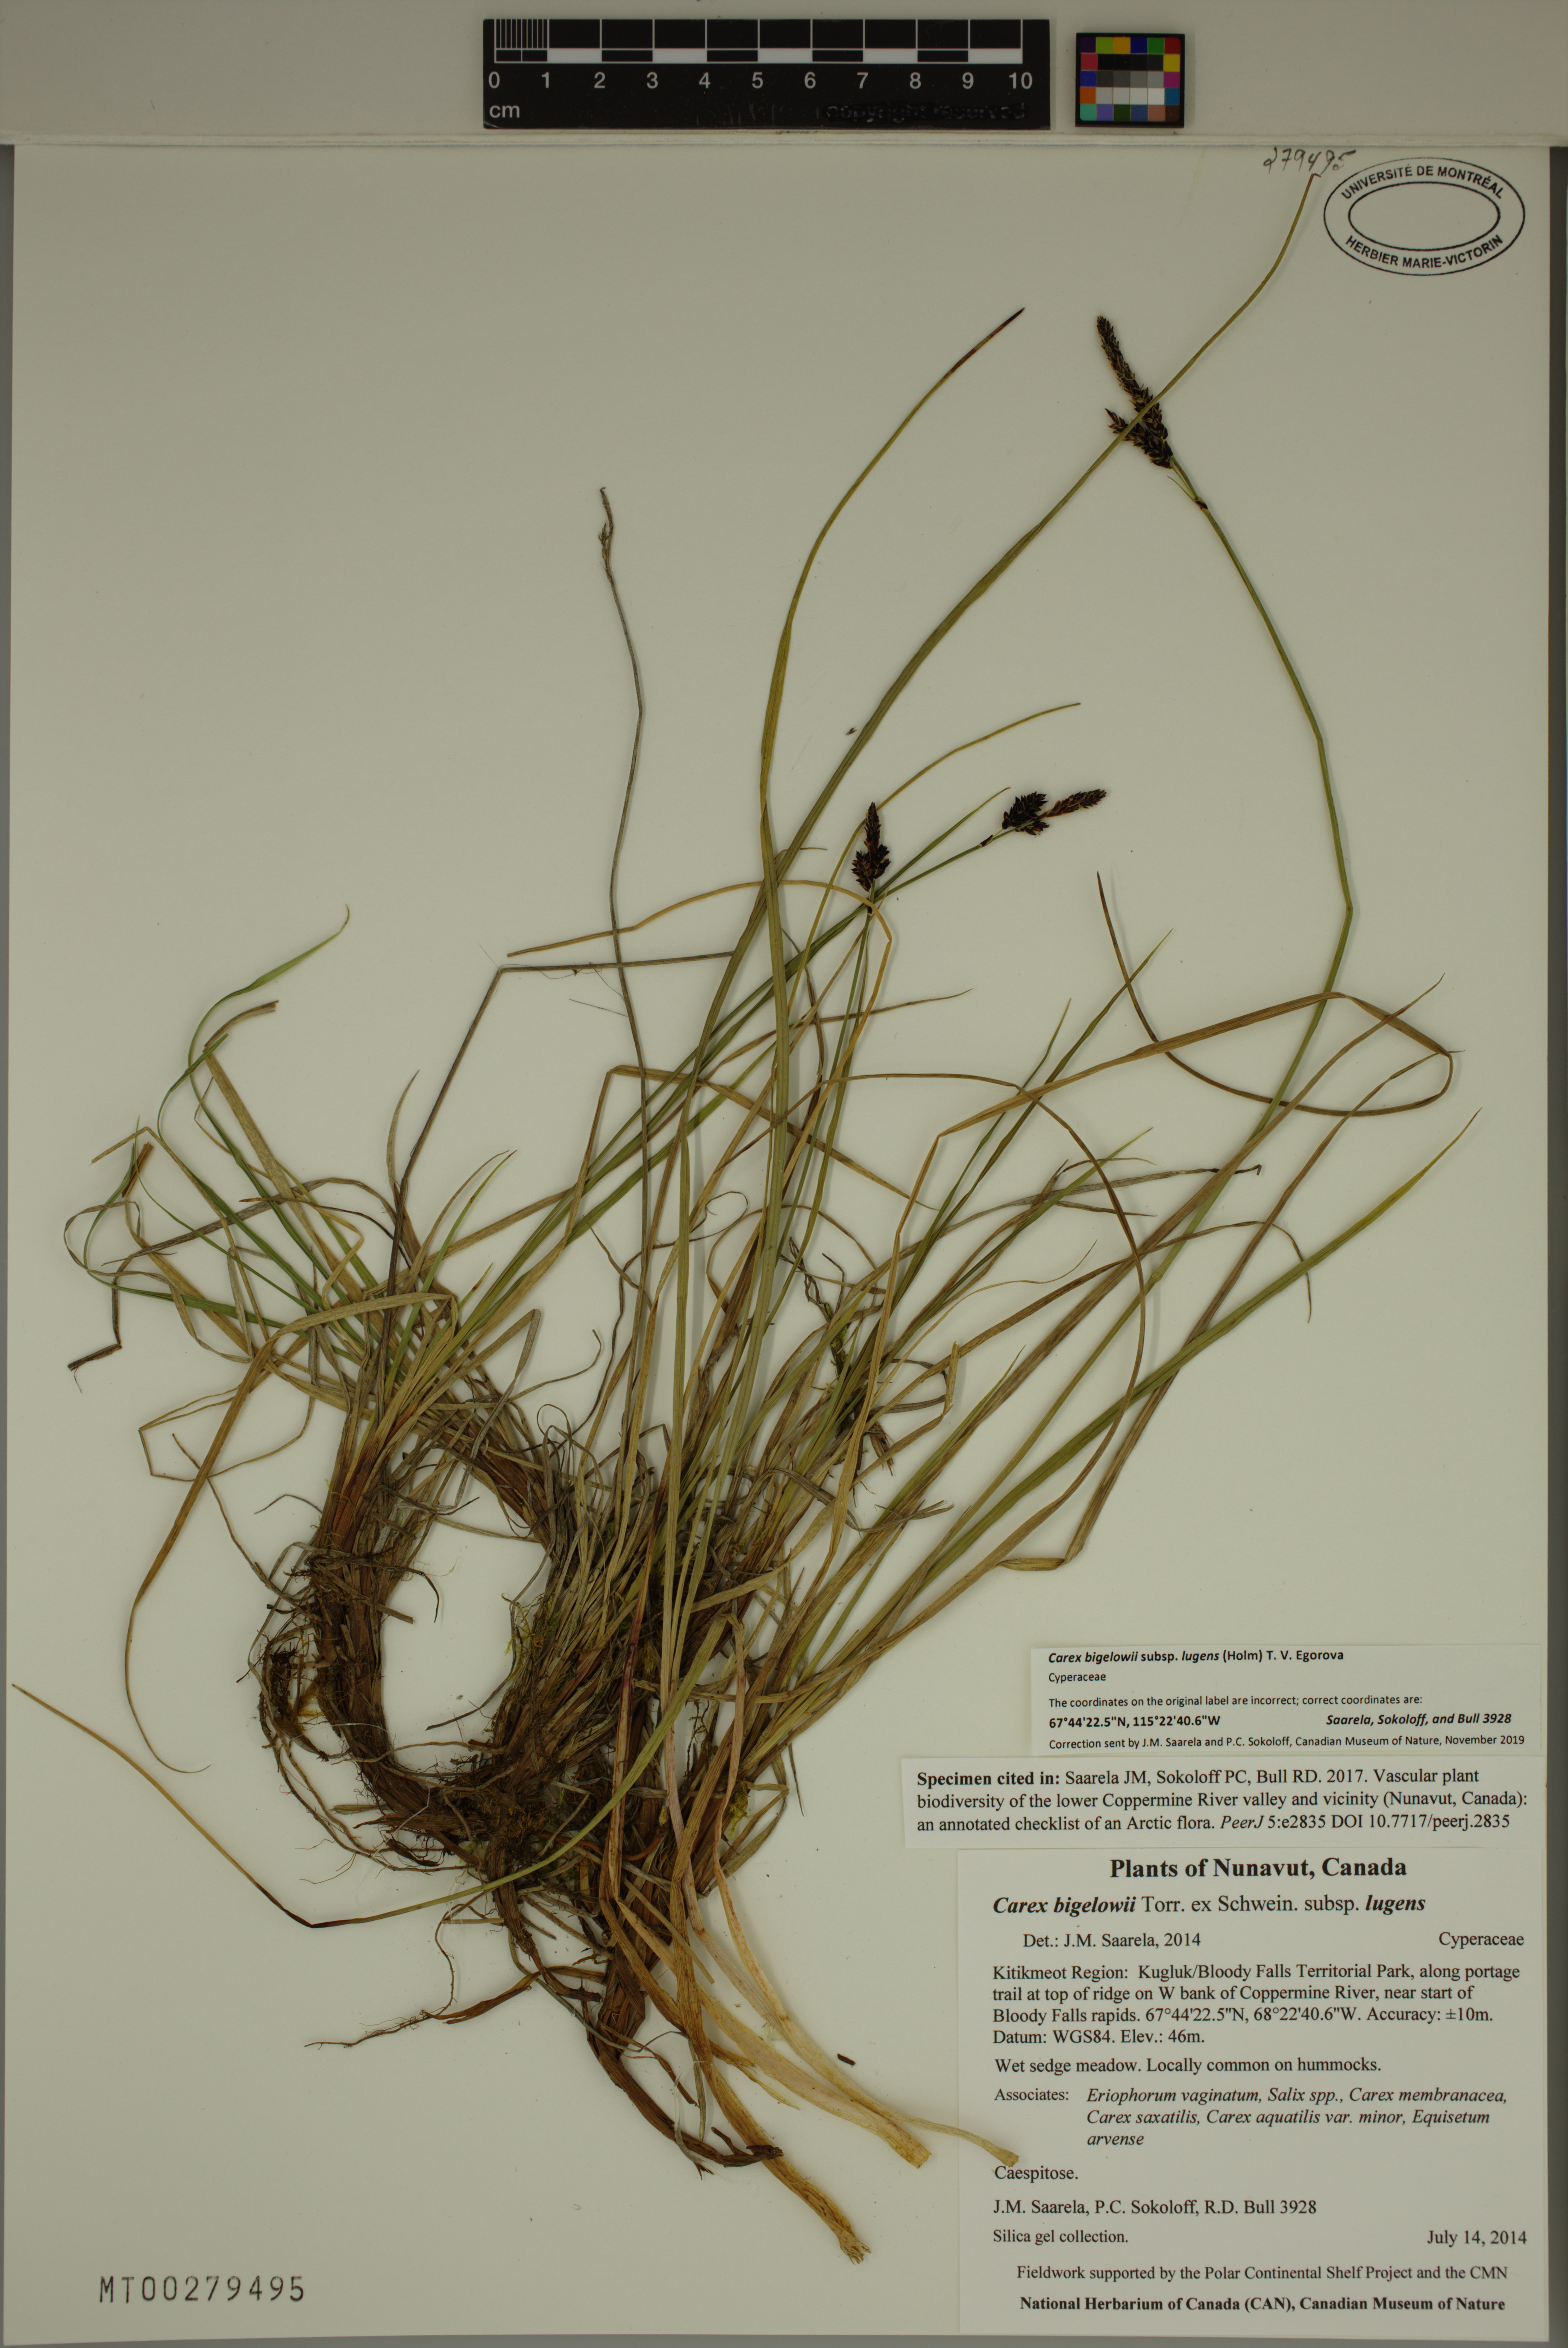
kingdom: Plantae
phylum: Tracheophyta
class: Liliopsida
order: Poales
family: Cyperaceae
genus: Carex
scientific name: Carex bigelowii
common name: Stiff sedge
